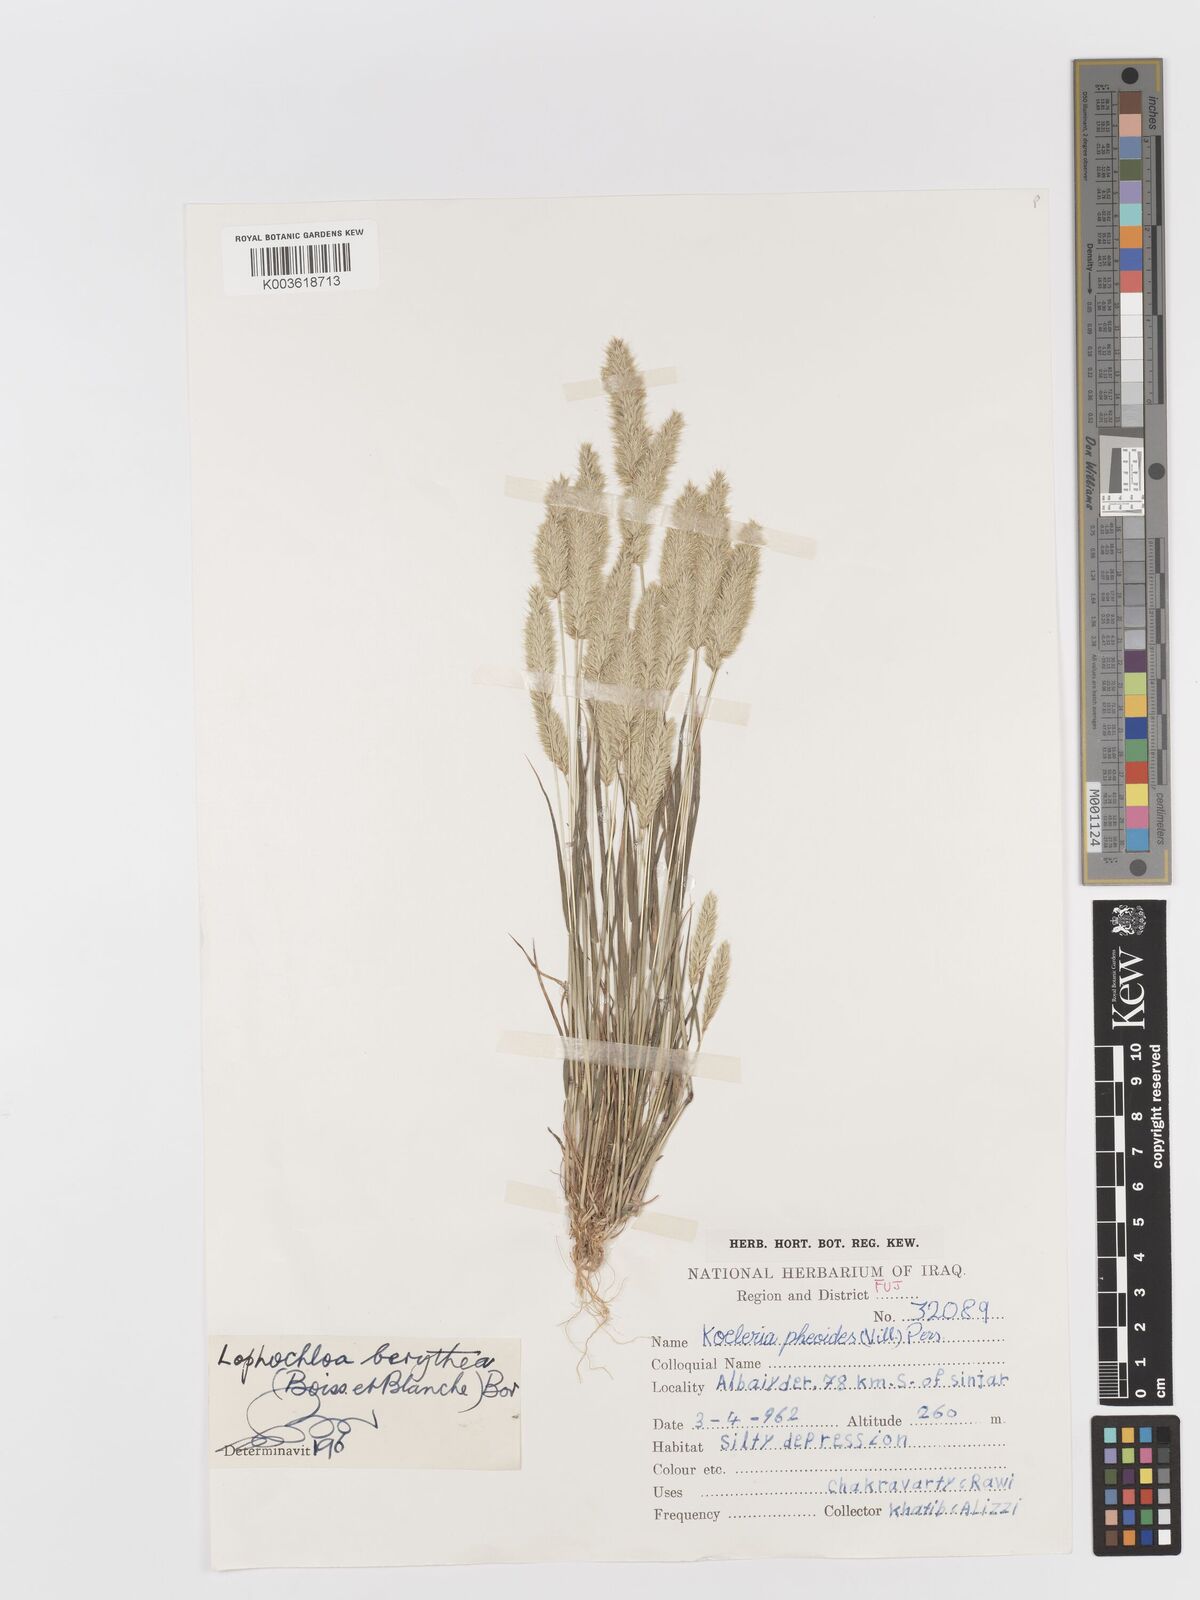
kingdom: Plantae
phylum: Tracheophyta
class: Liliopsida
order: Poales
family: Poaceae
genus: Rostraria
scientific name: Rostraria smyrnaea
